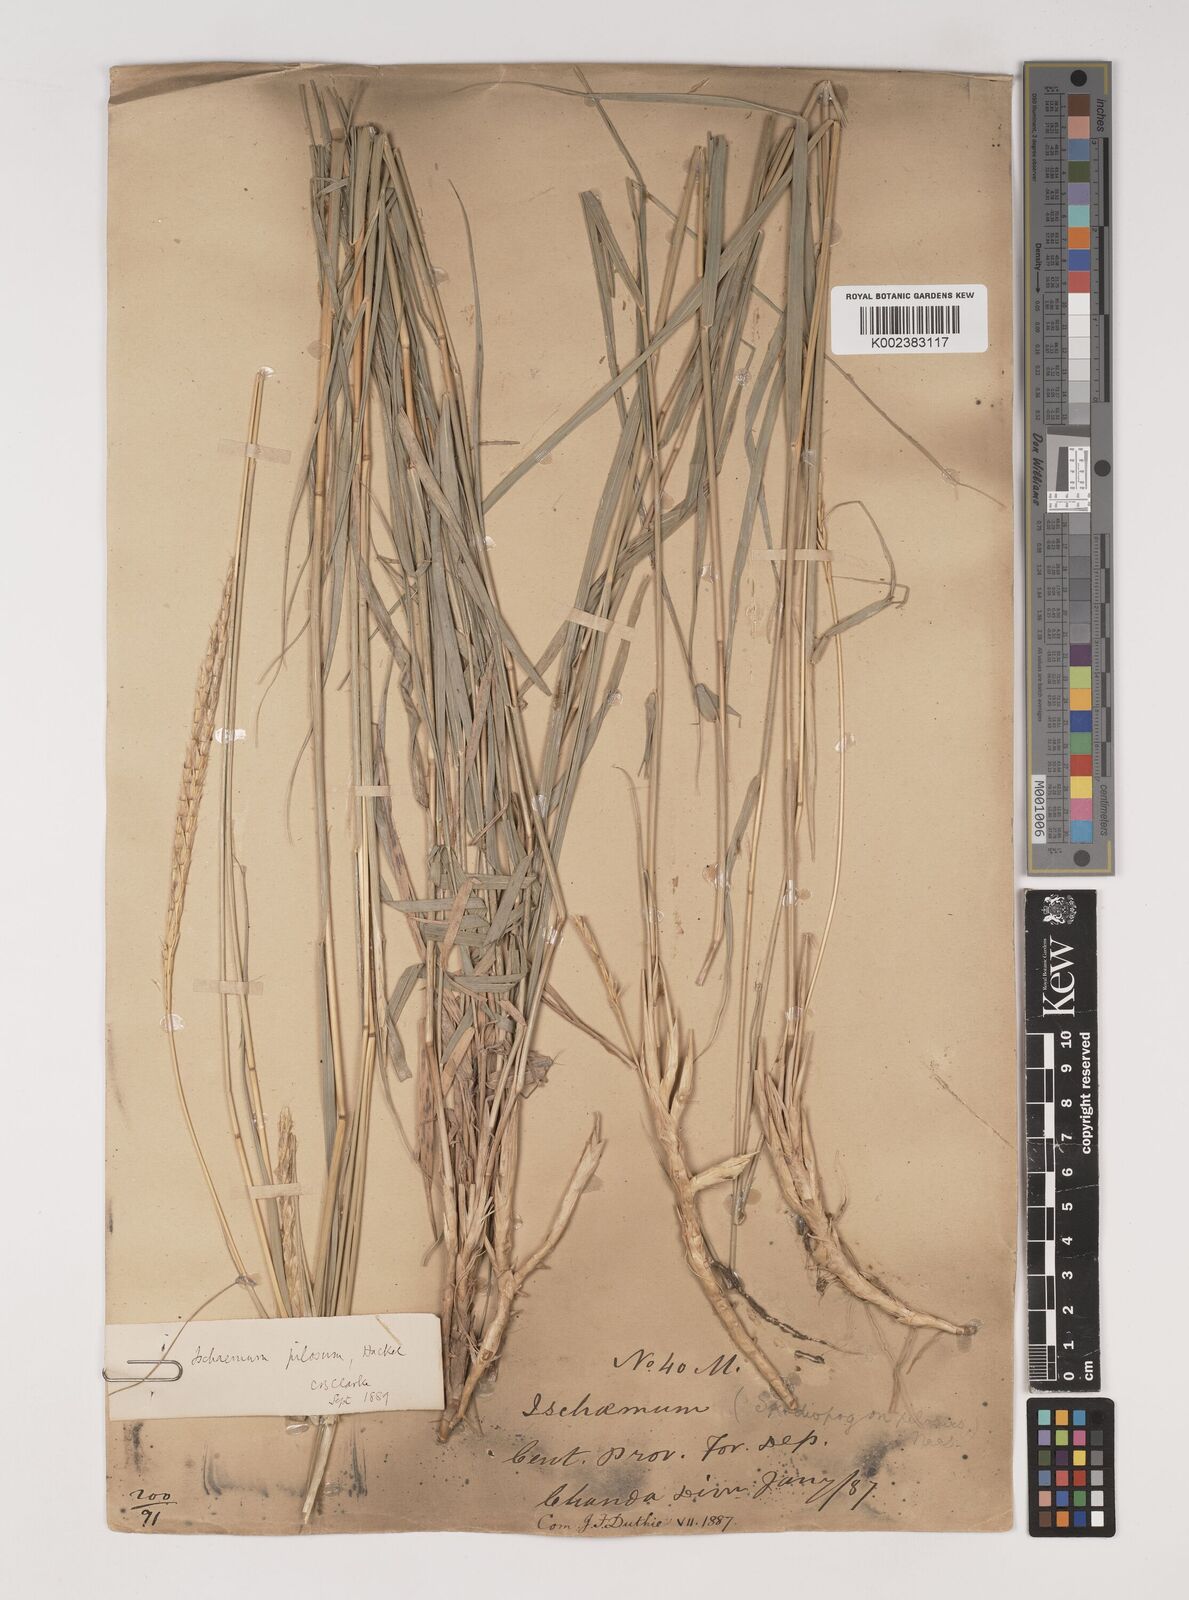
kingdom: Plantae
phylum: Tracheophyta
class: Liliopsida
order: Poales
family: Poaceae
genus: Ischaemum
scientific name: Ischaemum afrum
